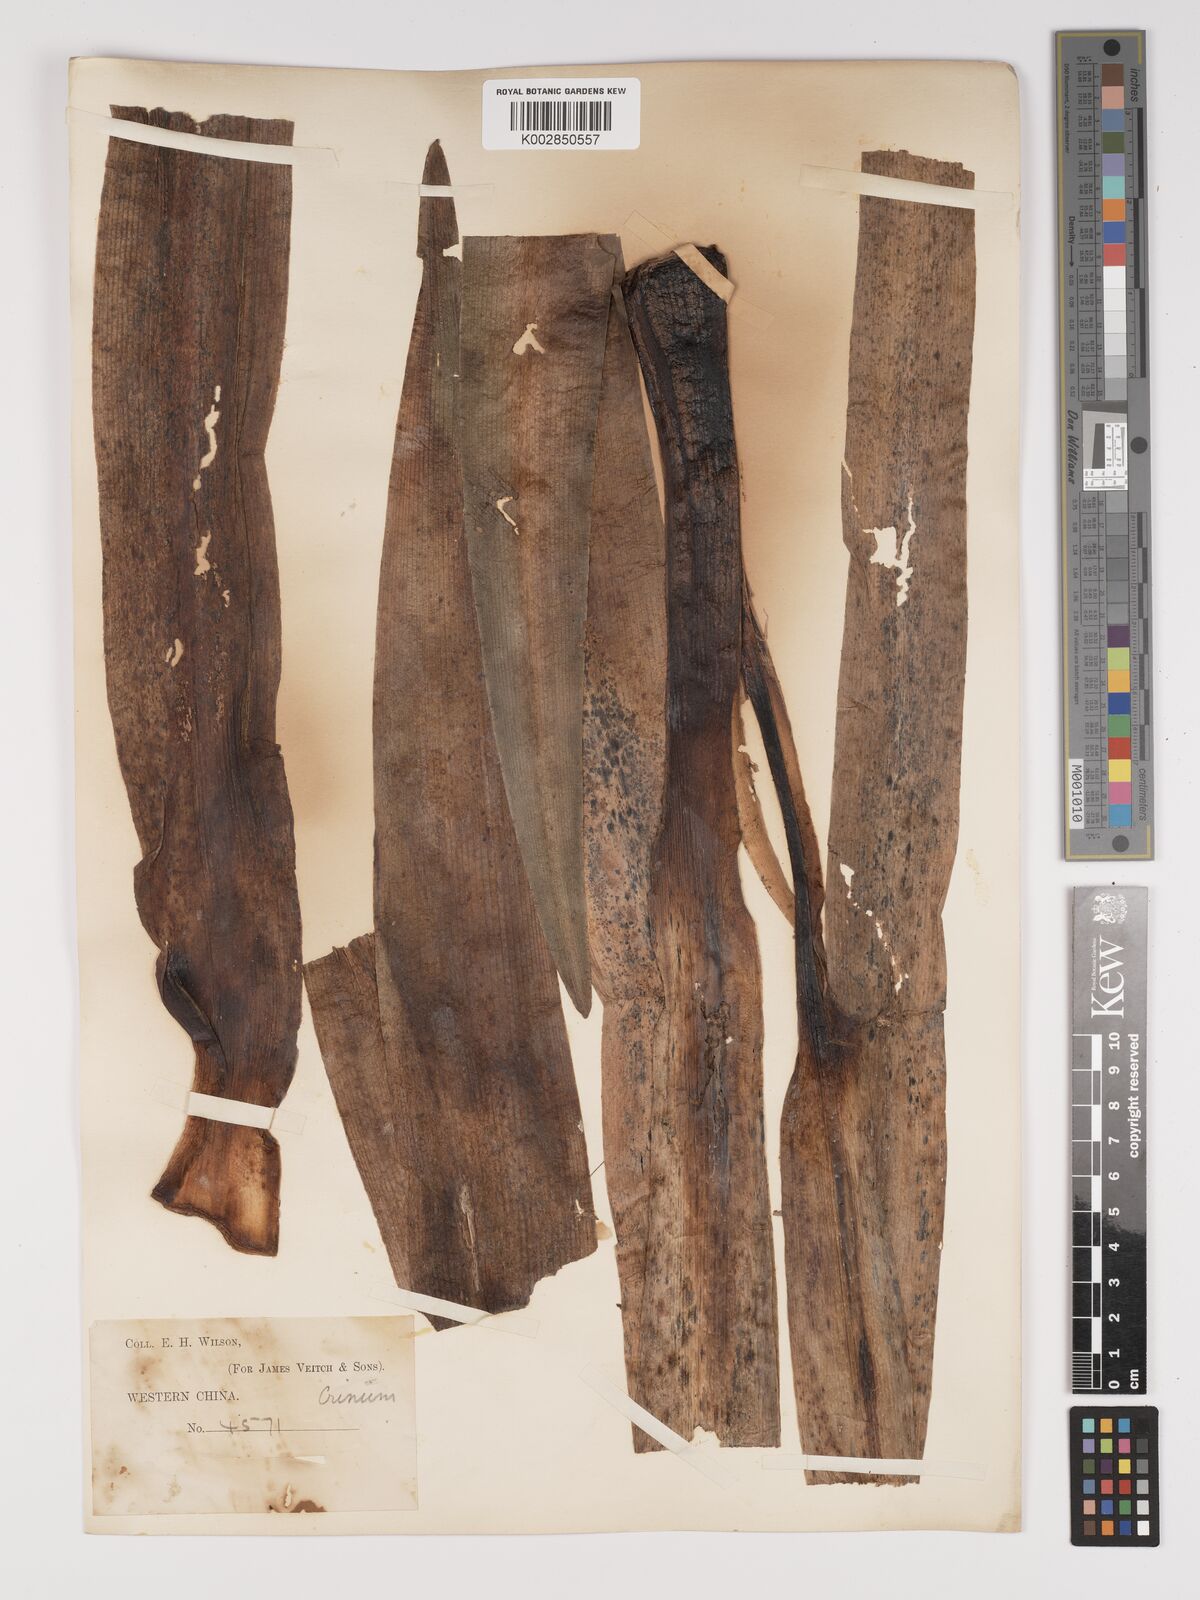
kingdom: Plantae
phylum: Tracheophyta
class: Liliopsida
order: Asparagales
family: Amaryllidaceae
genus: Crinum
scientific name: Crinum asiaticum
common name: Poisonbulb
